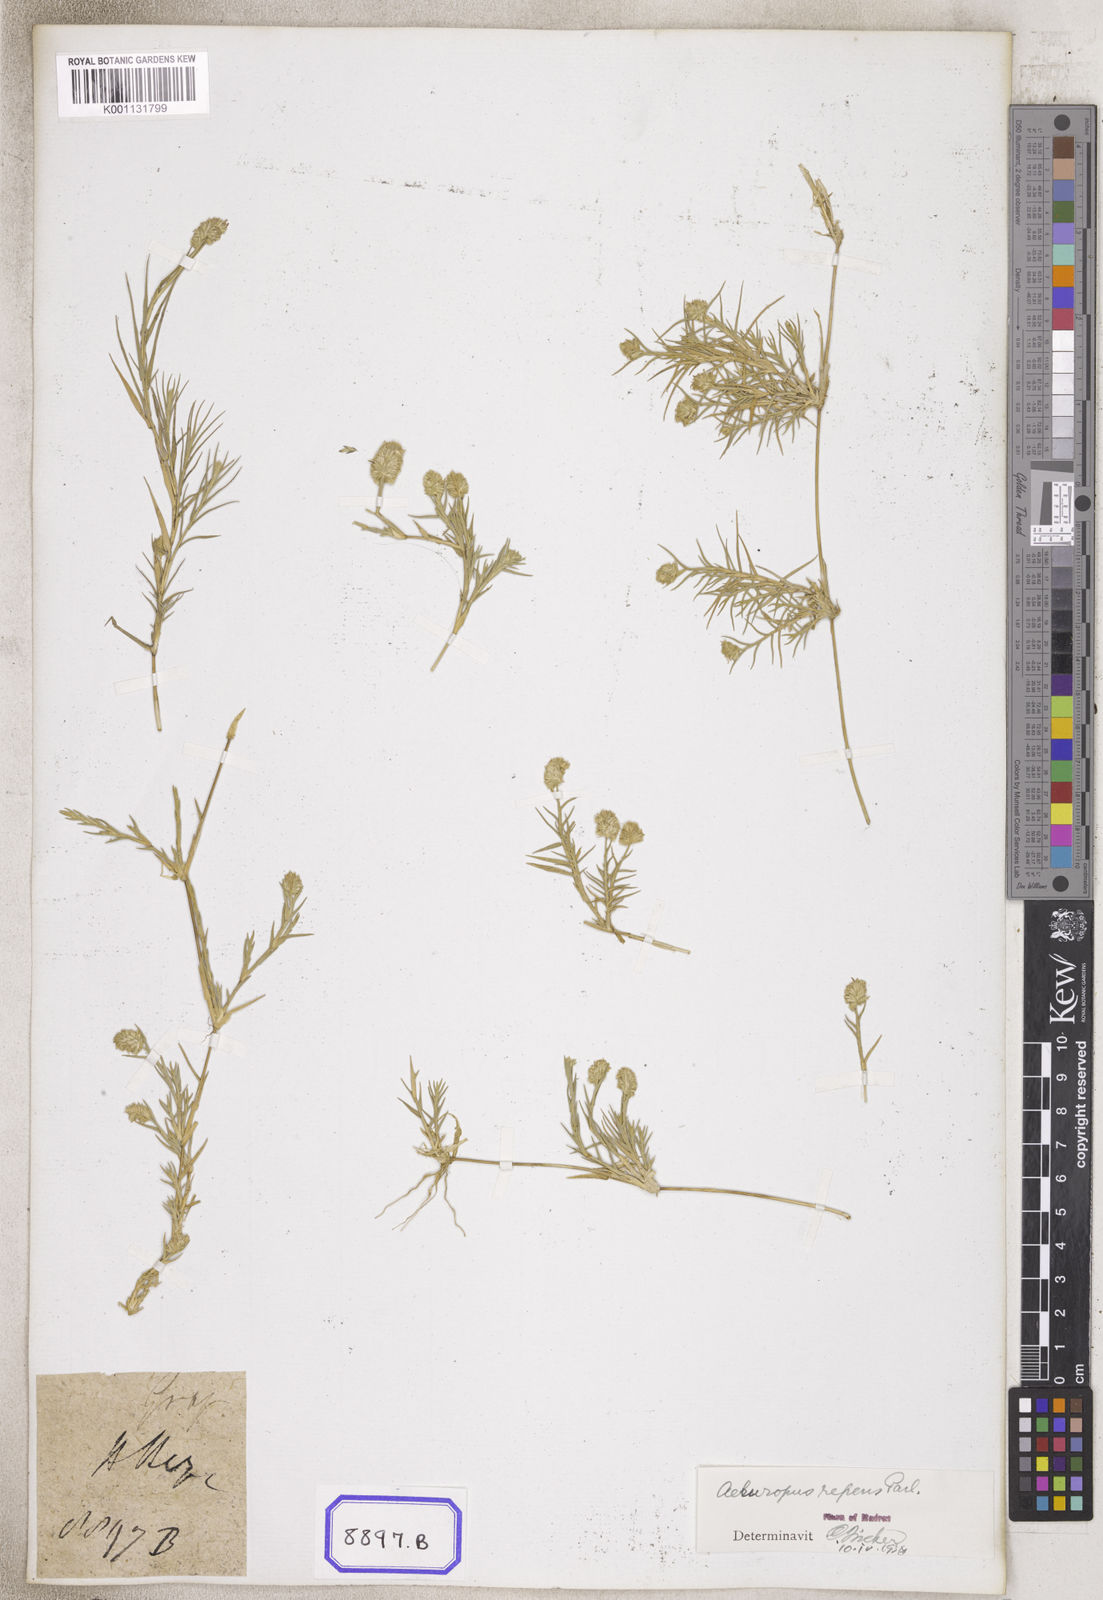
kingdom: Plantae
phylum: Tracheophyta
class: Liliopsida
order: Poales
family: Poaceae
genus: Aeluropus
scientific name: Aeluropus
